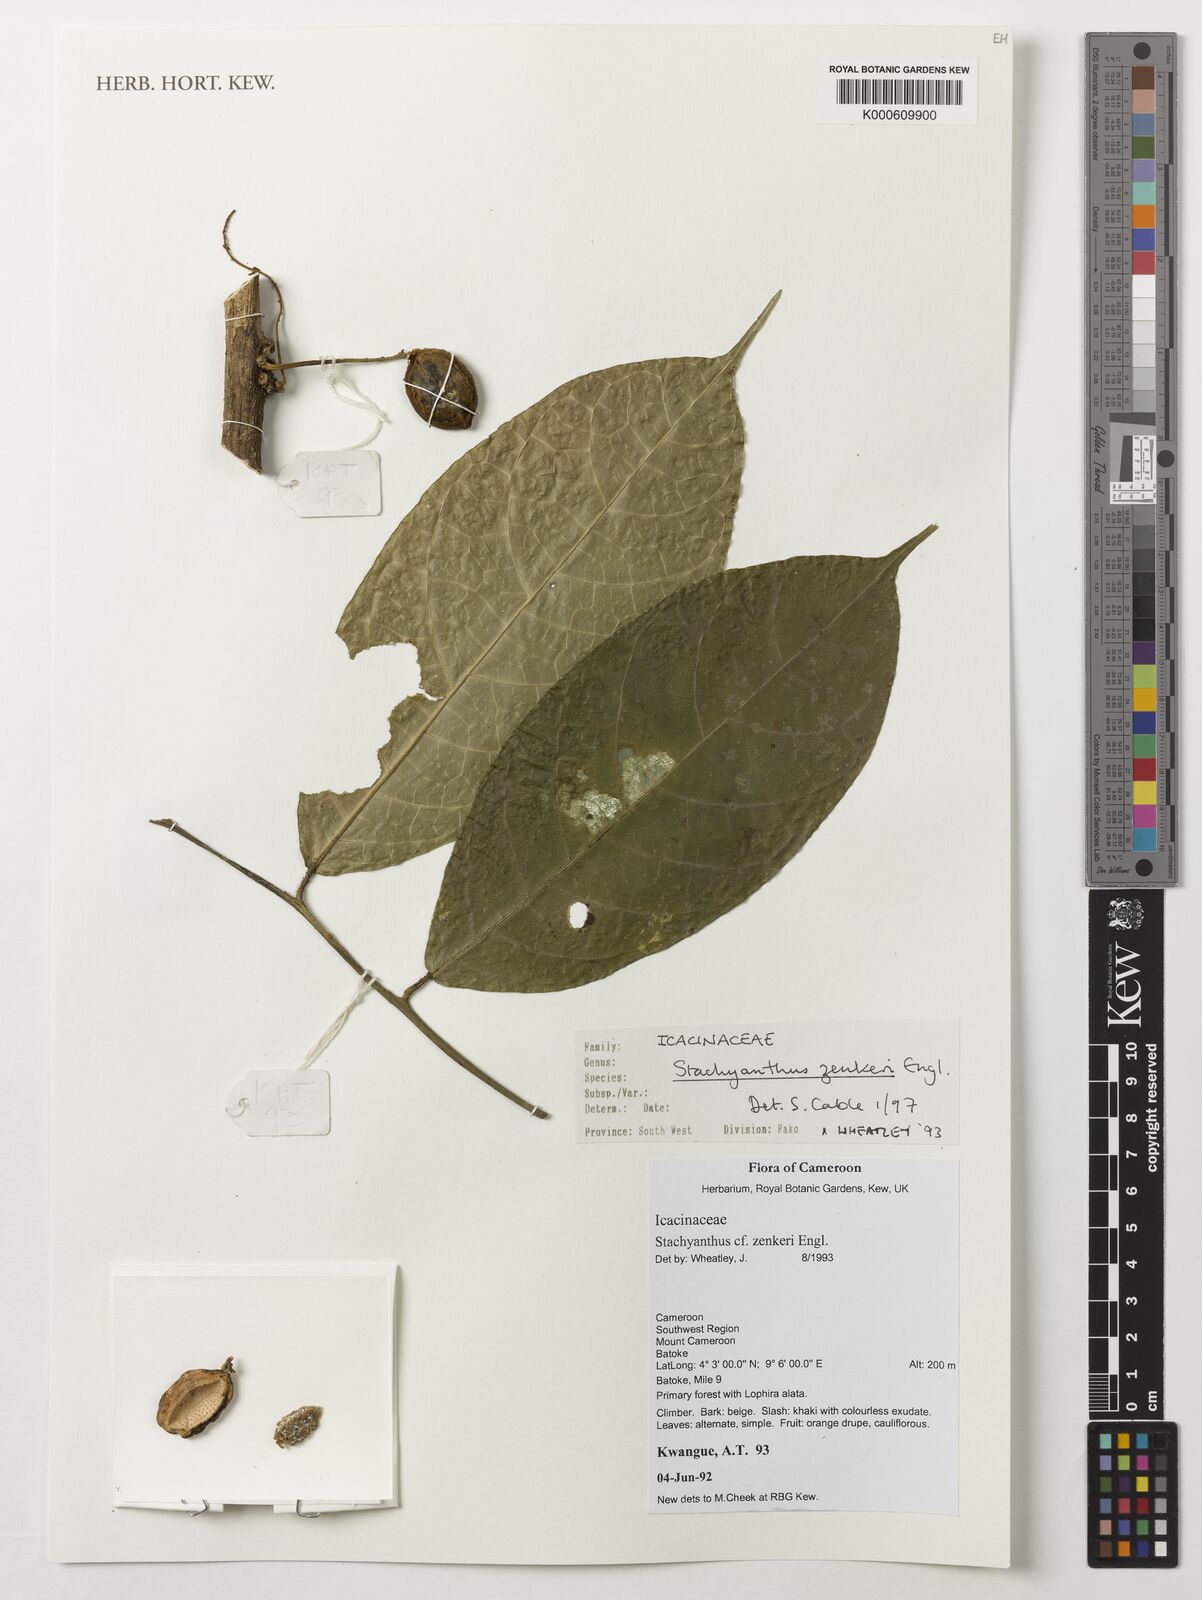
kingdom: Plantae
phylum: Tracheophyta
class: Magnoliopsida
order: Icacinales
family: Icacinaceae
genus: Stachyanthus
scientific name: Stachyanthus zenkeri
